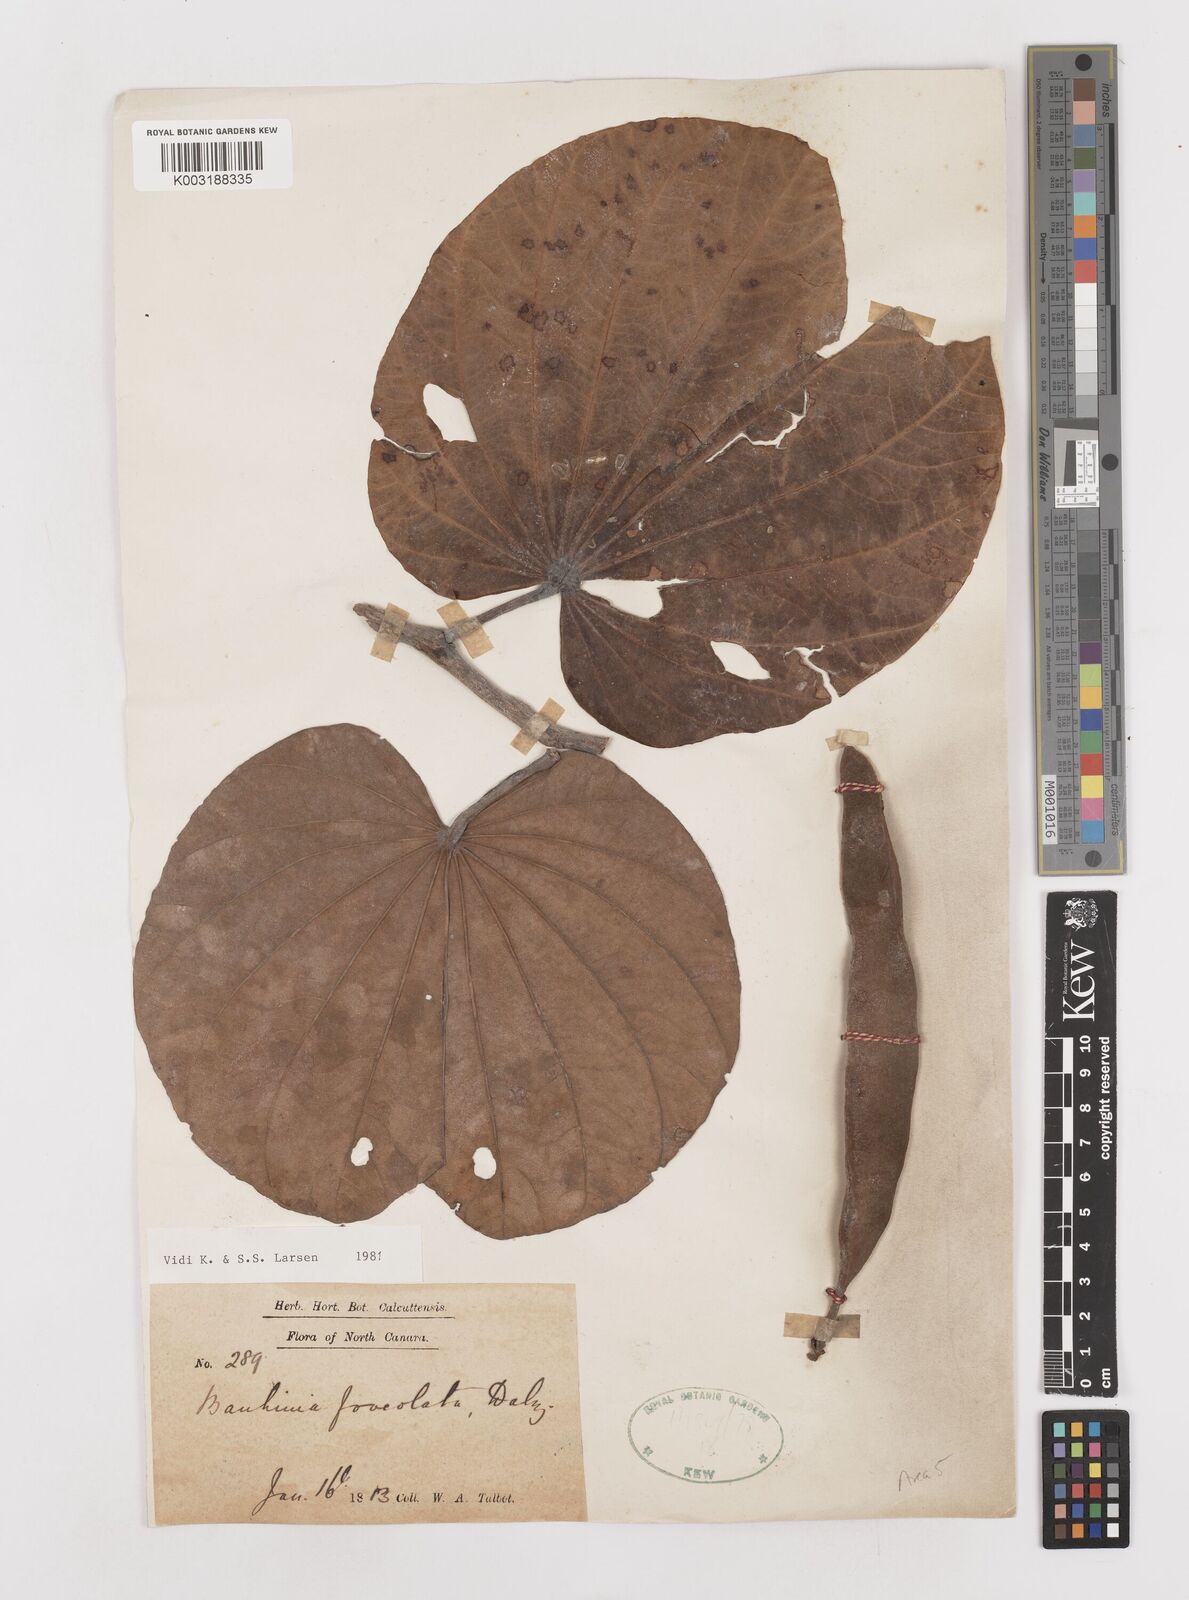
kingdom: Plantae
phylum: Tracheophyta
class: Magnoliopsida
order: Fabales
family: Fabaceae
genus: Piliostigma
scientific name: Piliostigma foveolatum
